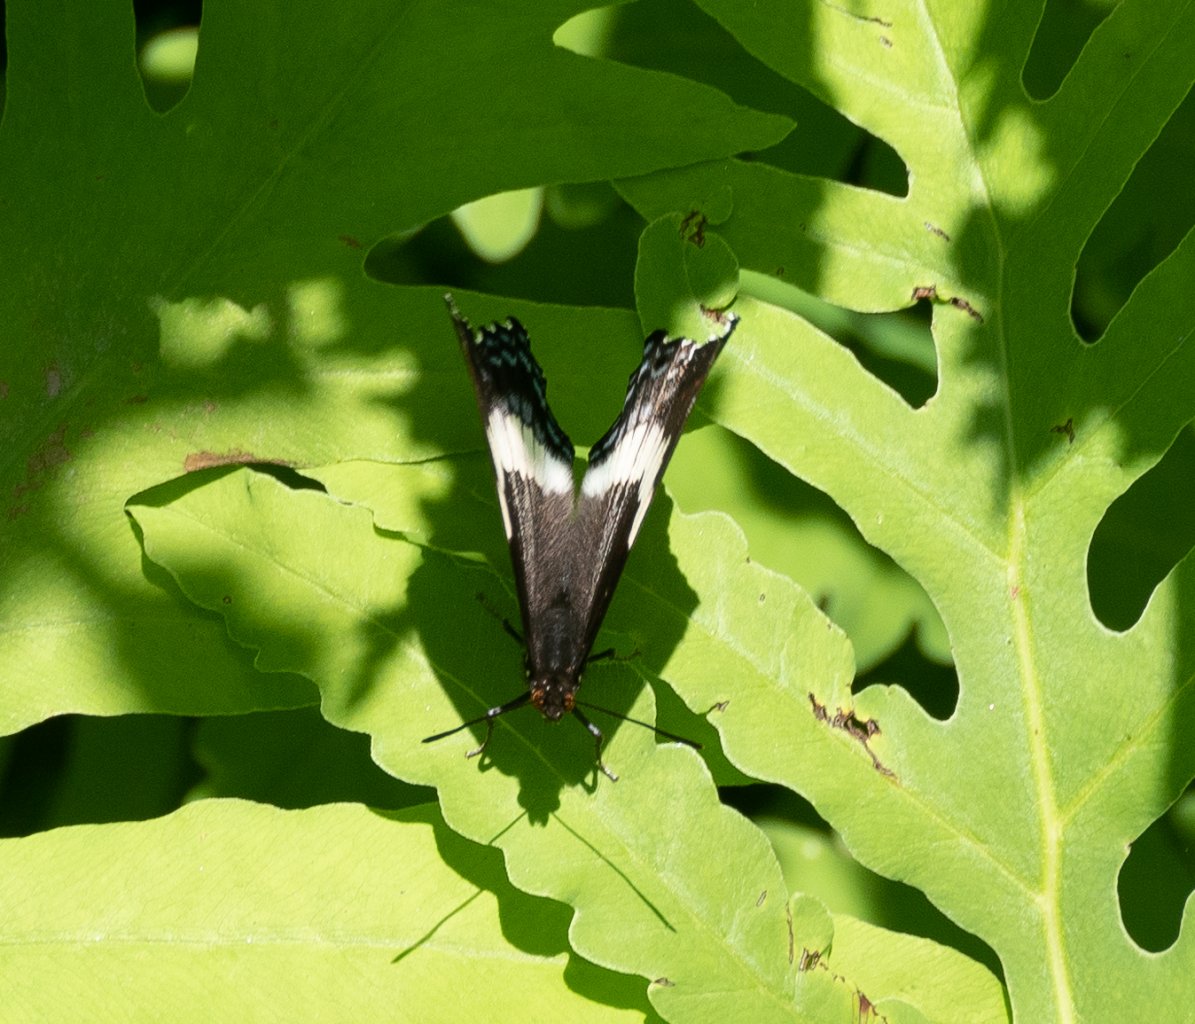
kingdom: Animalia
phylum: Arthropoda
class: Insecta
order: Lepidoptera
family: Nymphalidae
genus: Limenitis
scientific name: Limenitis arthemis
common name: Red-spotted Admiral
